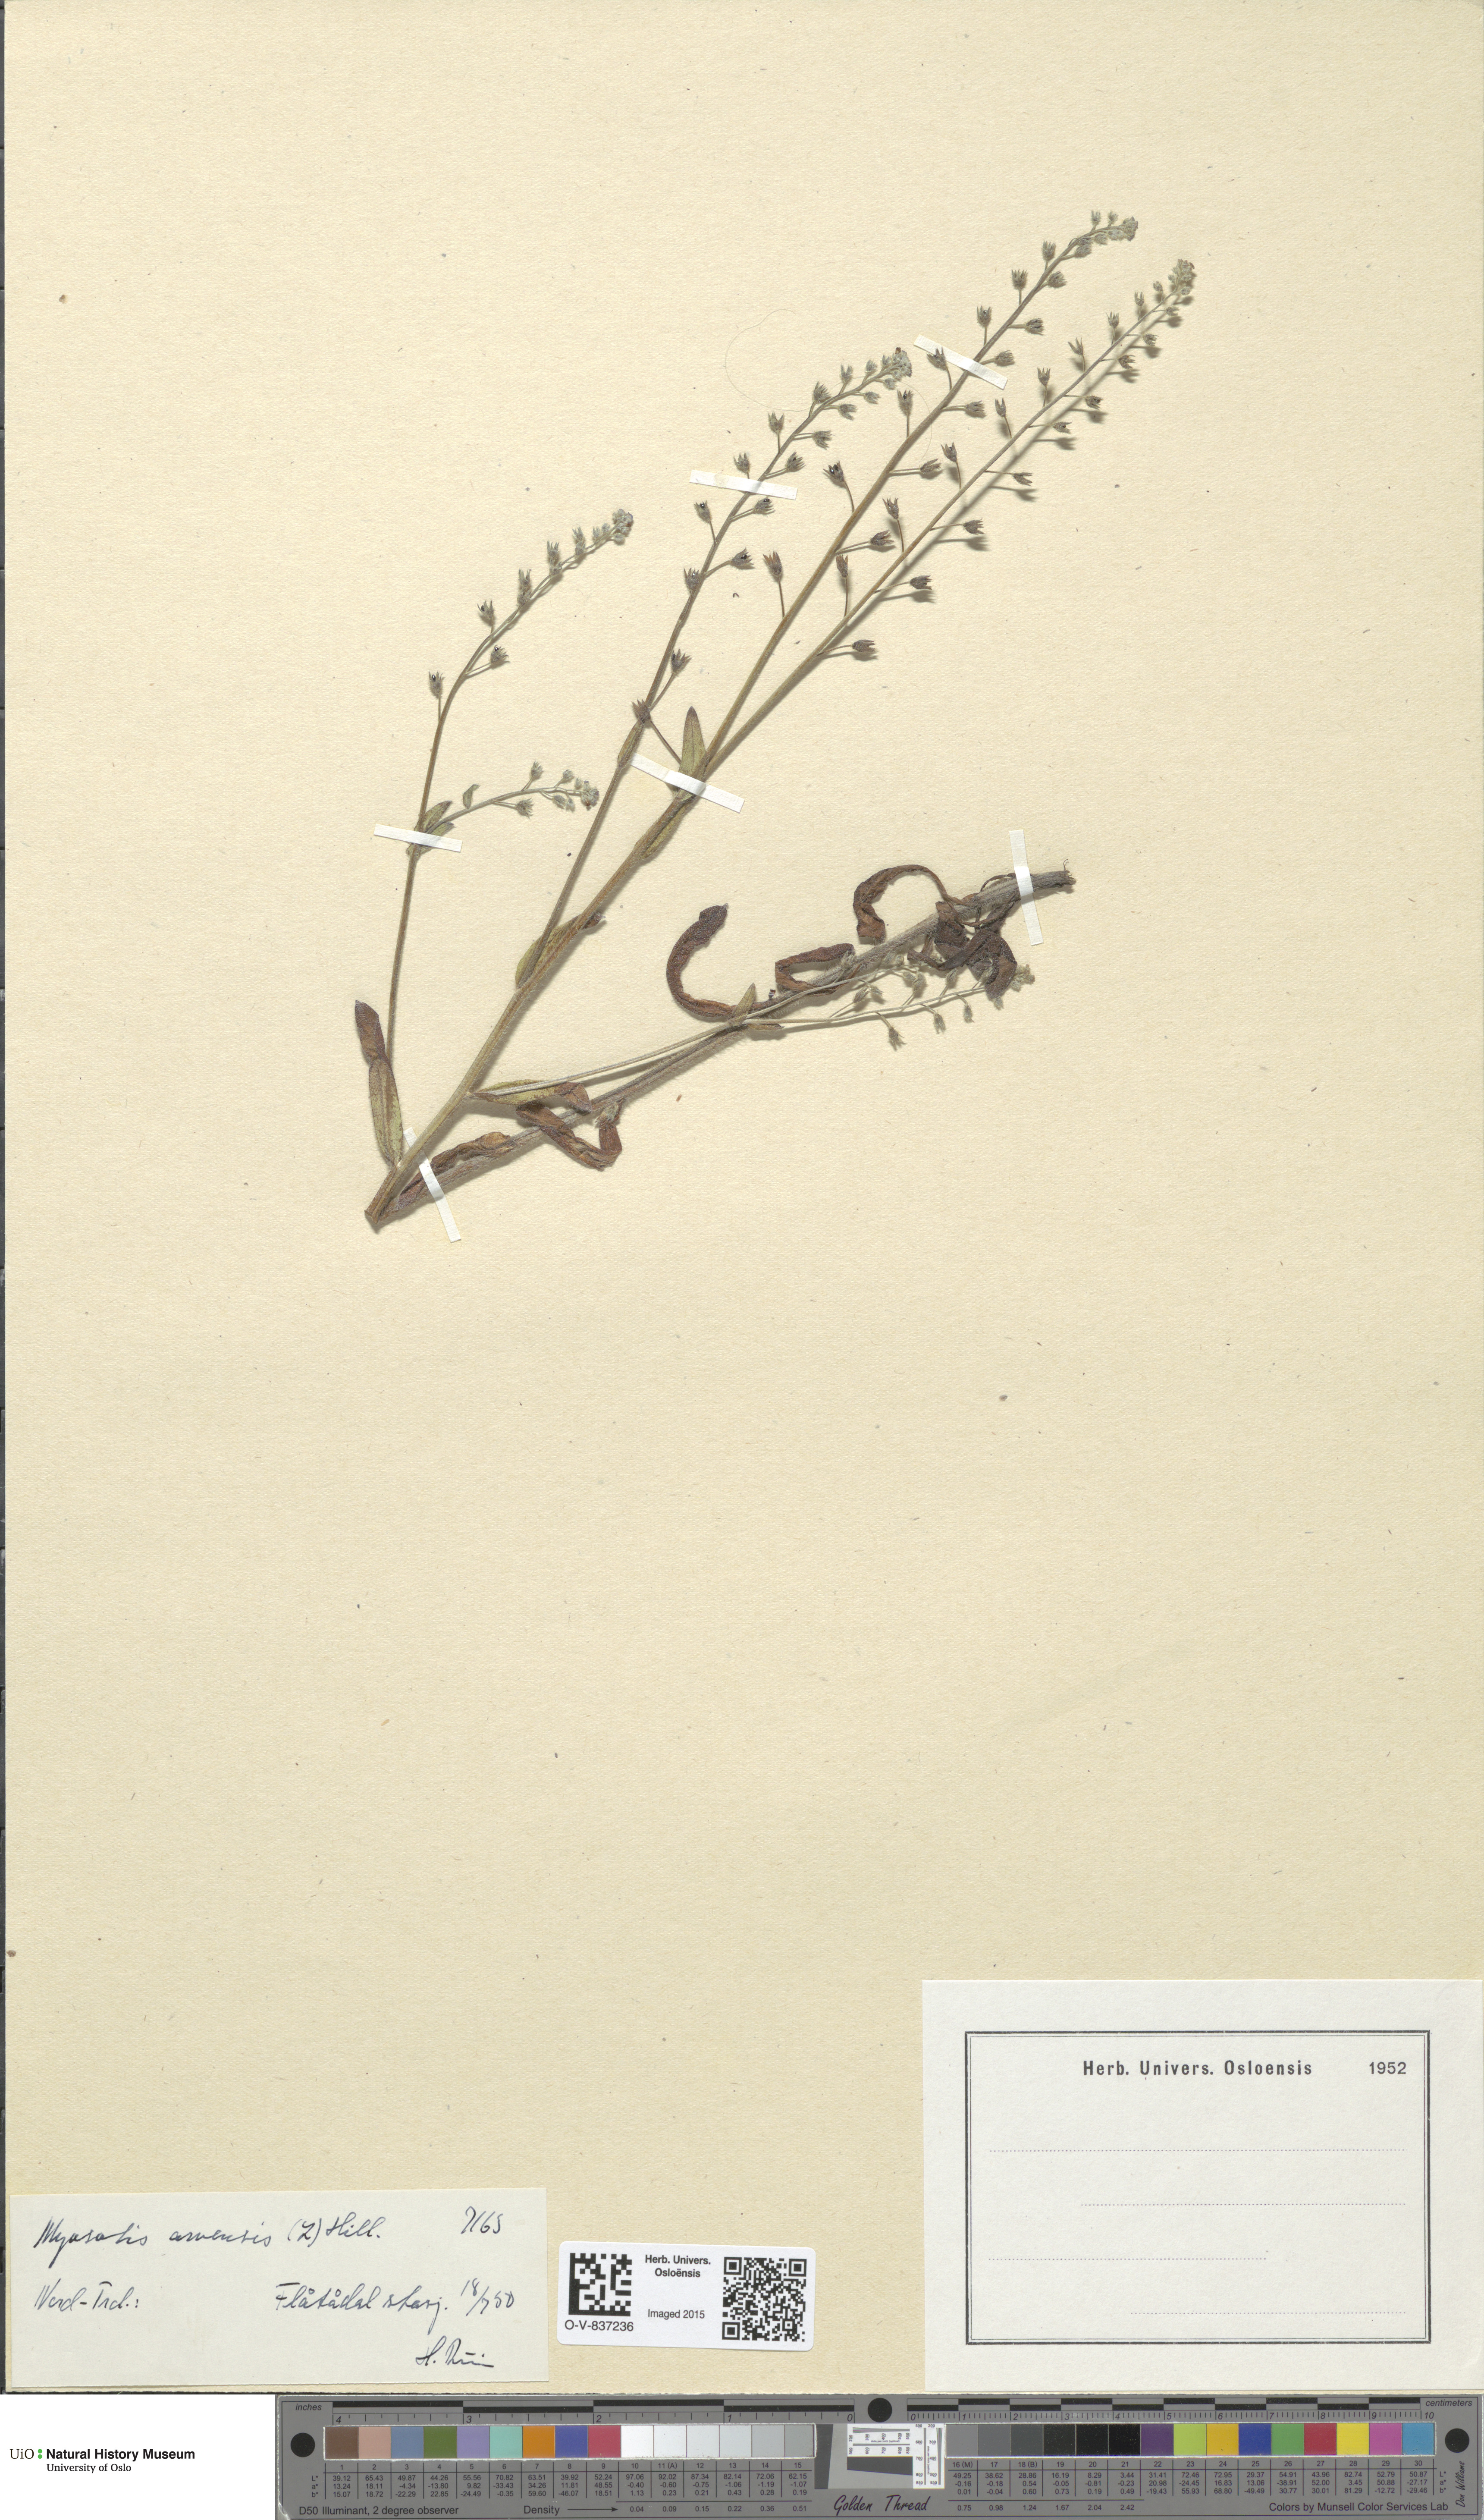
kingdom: Plantae
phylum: Tracheophyta
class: Magnoliopsida
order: Boraginales
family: Boraginaceae
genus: Myosotis
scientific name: Myosotis arvensis
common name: Field forget-me-not
